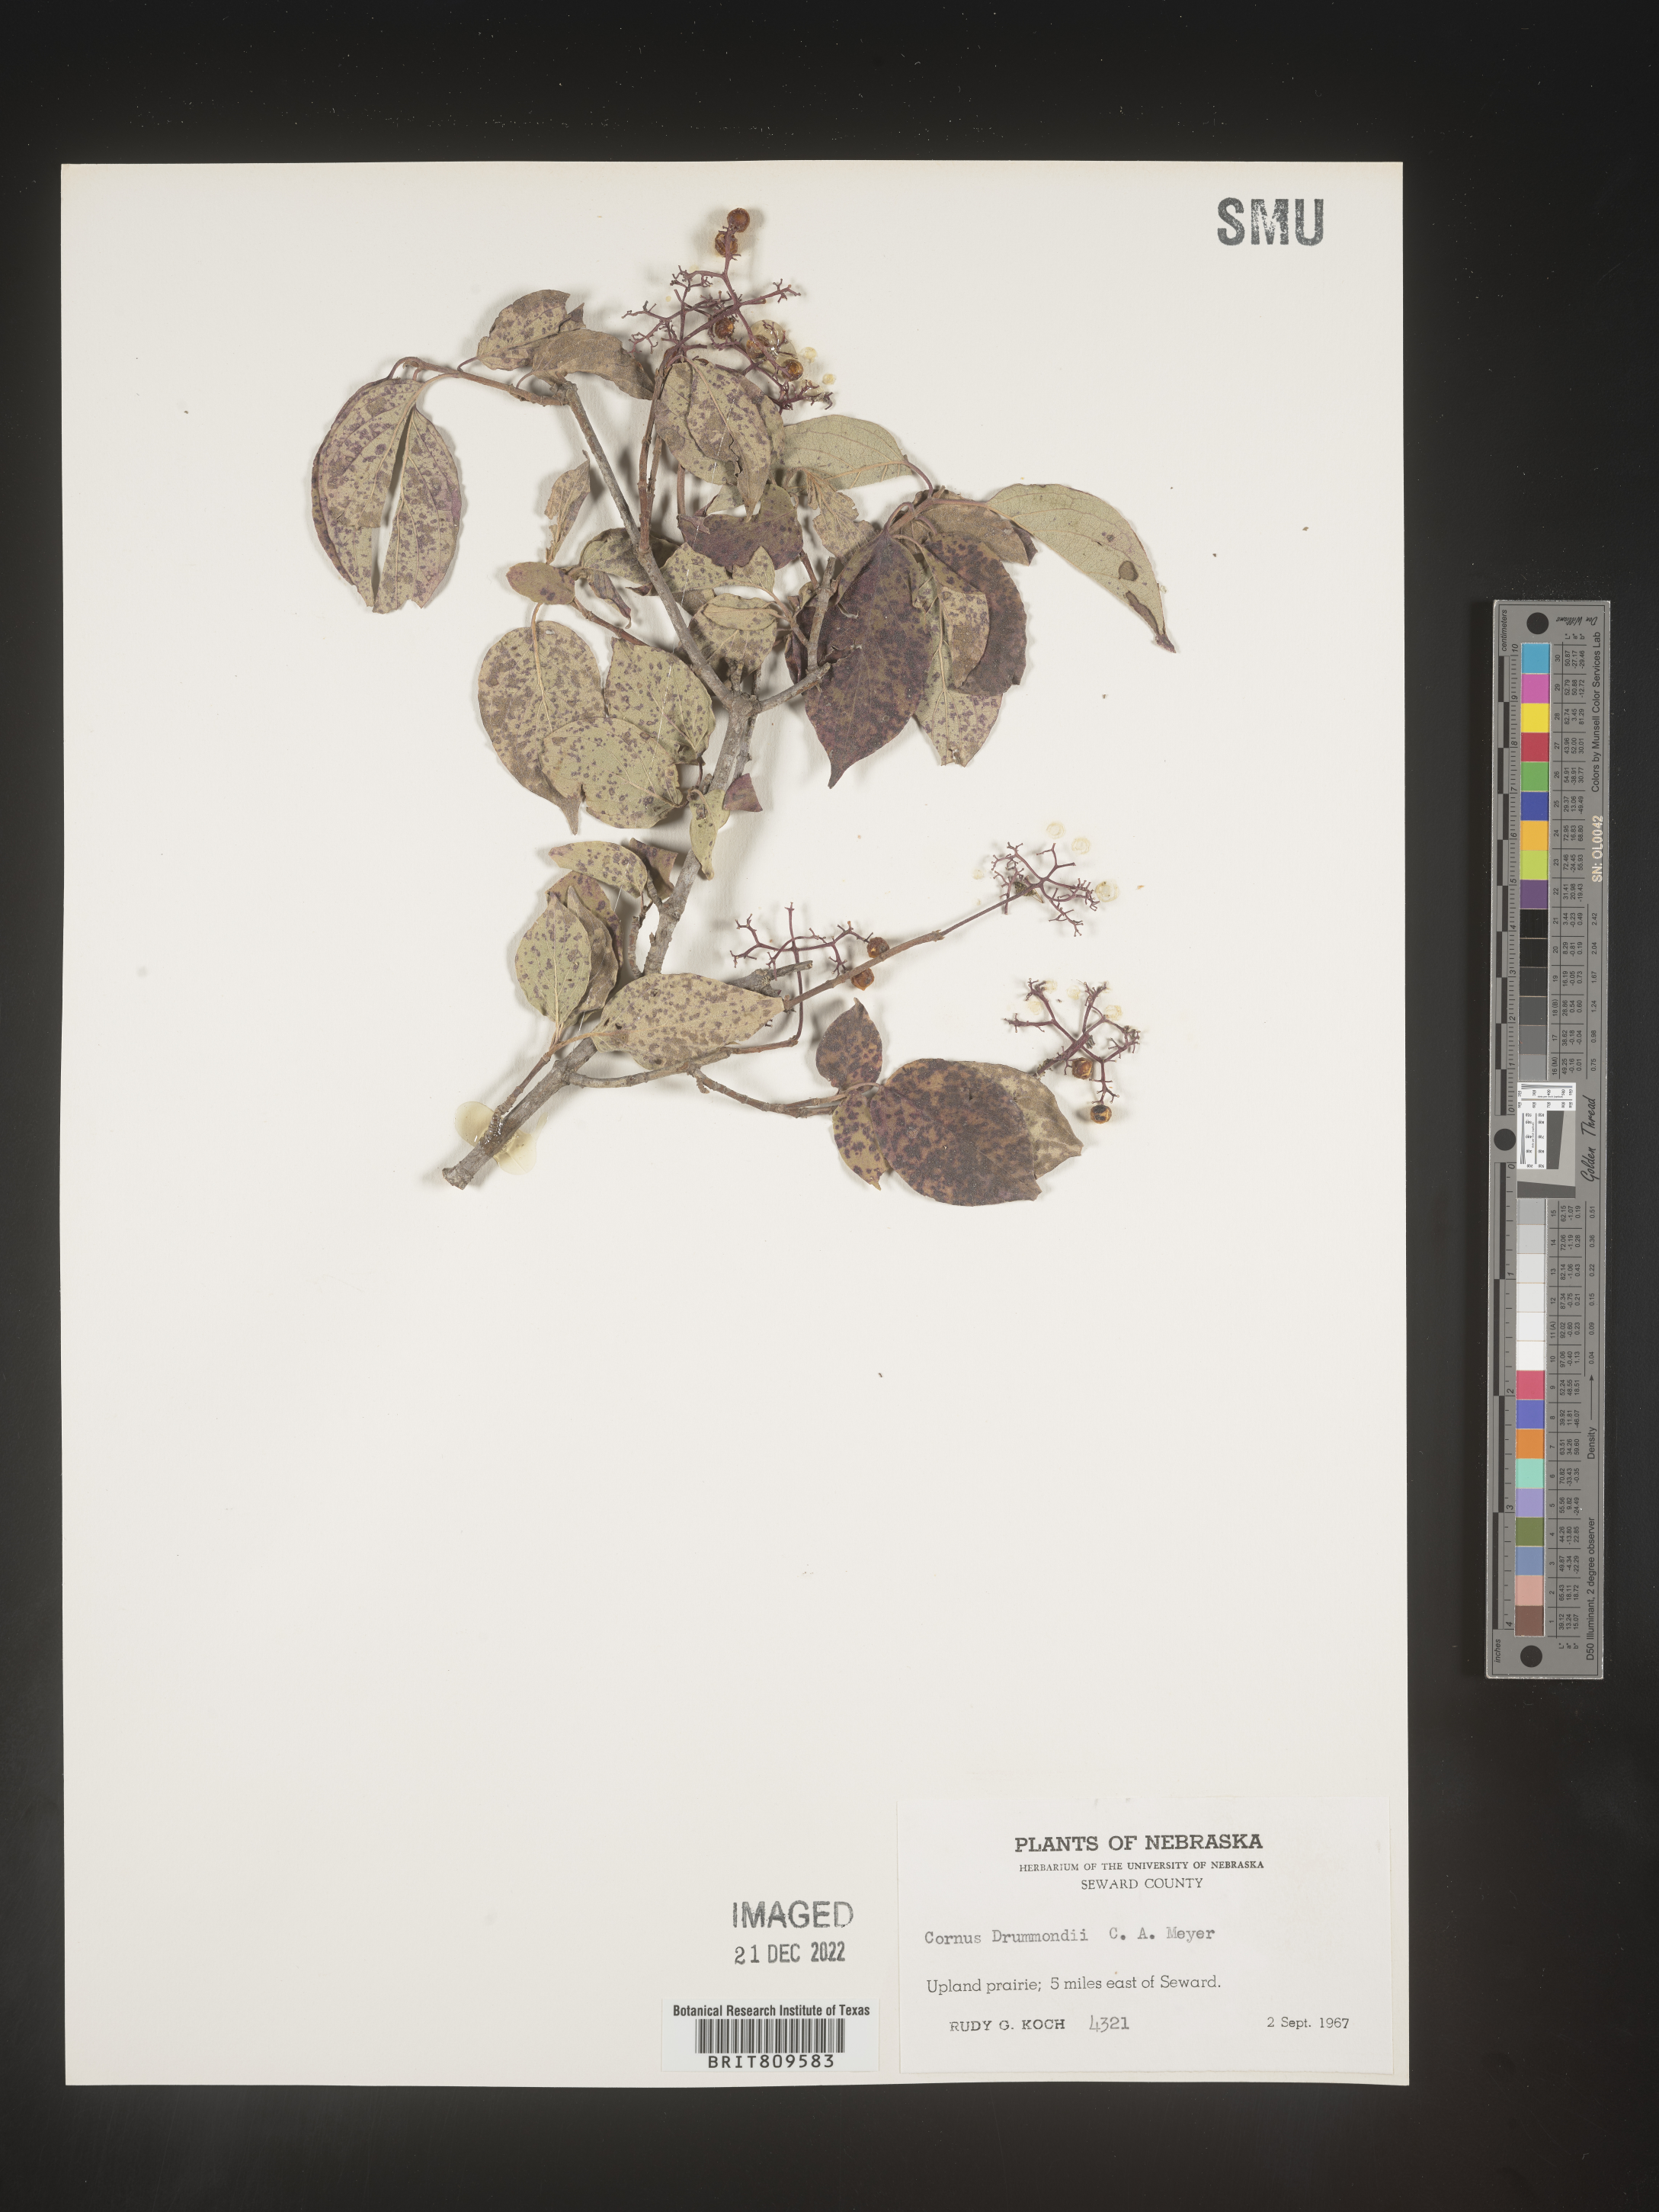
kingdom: Plantae
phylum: Tracheophyta
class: Magnoliopsida
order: Cornales
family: Cornaceae
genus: Cornus
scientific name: Cornus drummondii
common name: Rough-leaf dogwood
